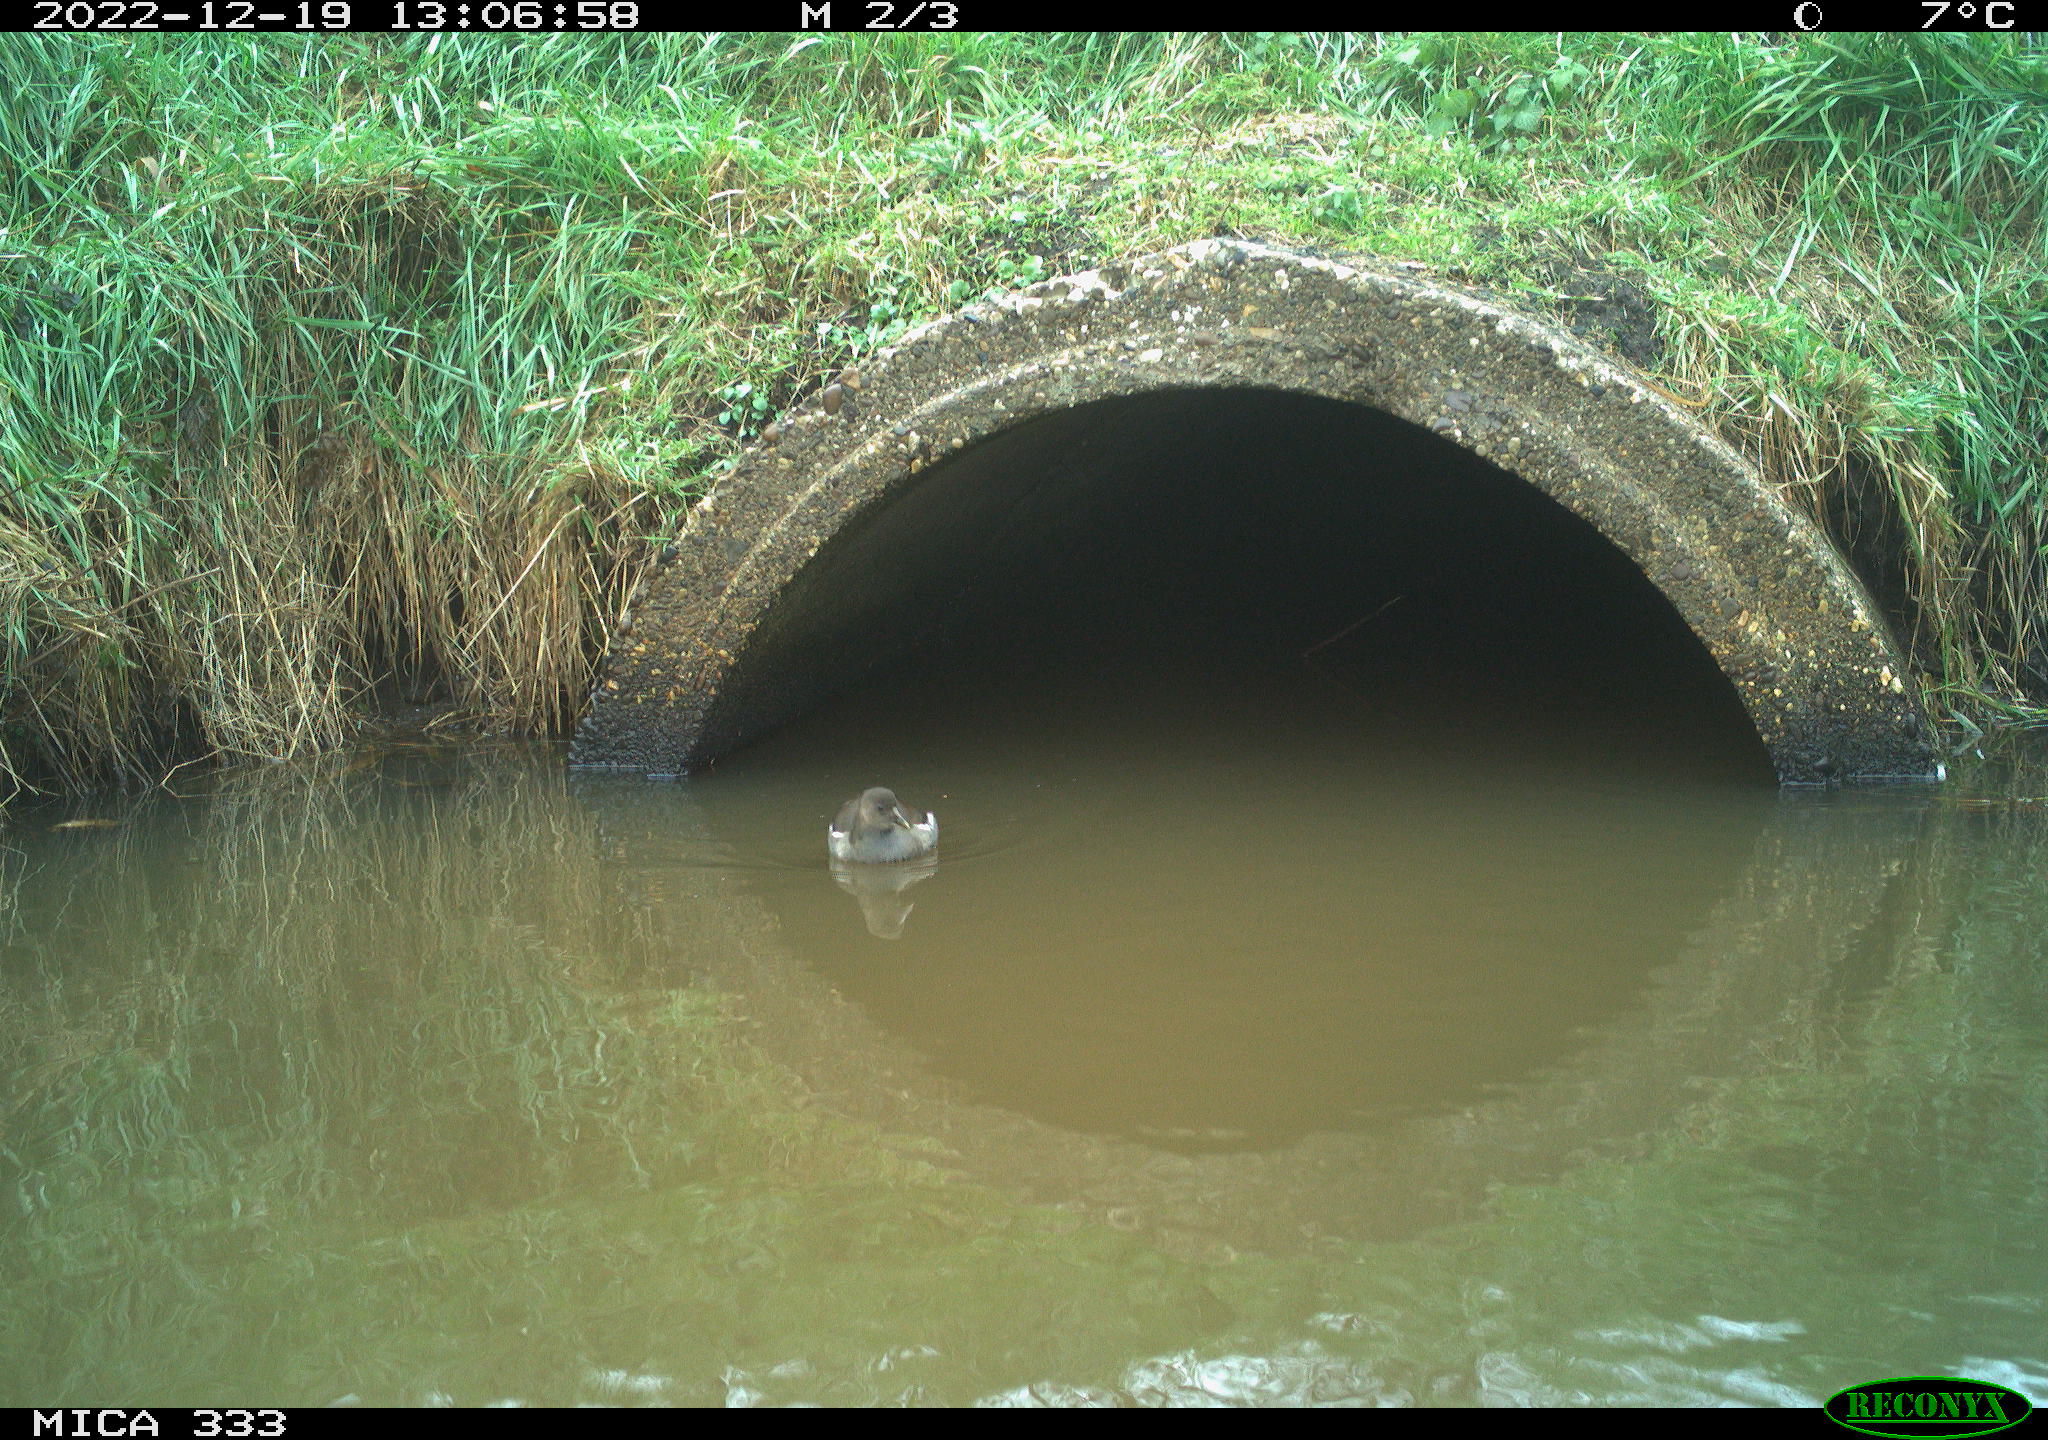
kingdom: Animalia
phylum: Chordata
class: Aves
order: Gruiformes
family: Rallidae
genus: Gallinula
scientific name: Gallinula chloropus
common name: Common moorhen
